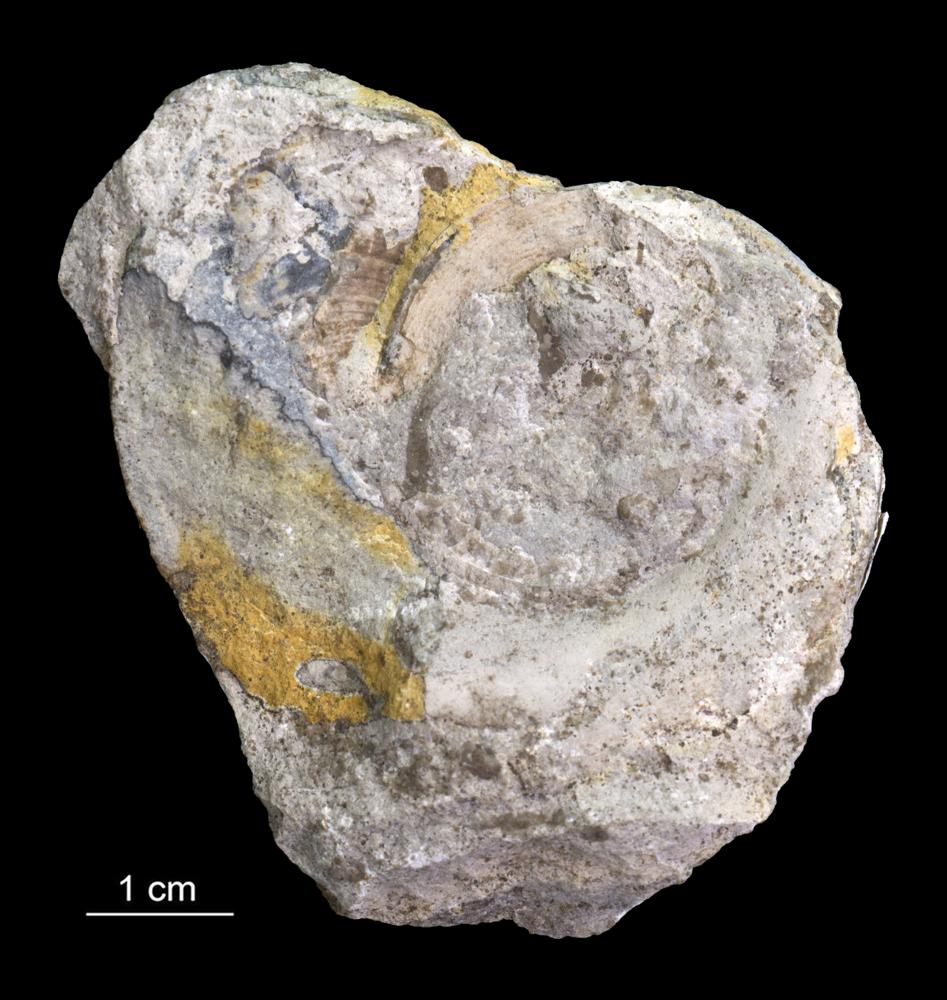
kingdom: Animalia
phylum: Mollusca
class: Gastropoda
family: Lesueurillidae
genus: Lesueurilla
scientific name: Lesueurilla
